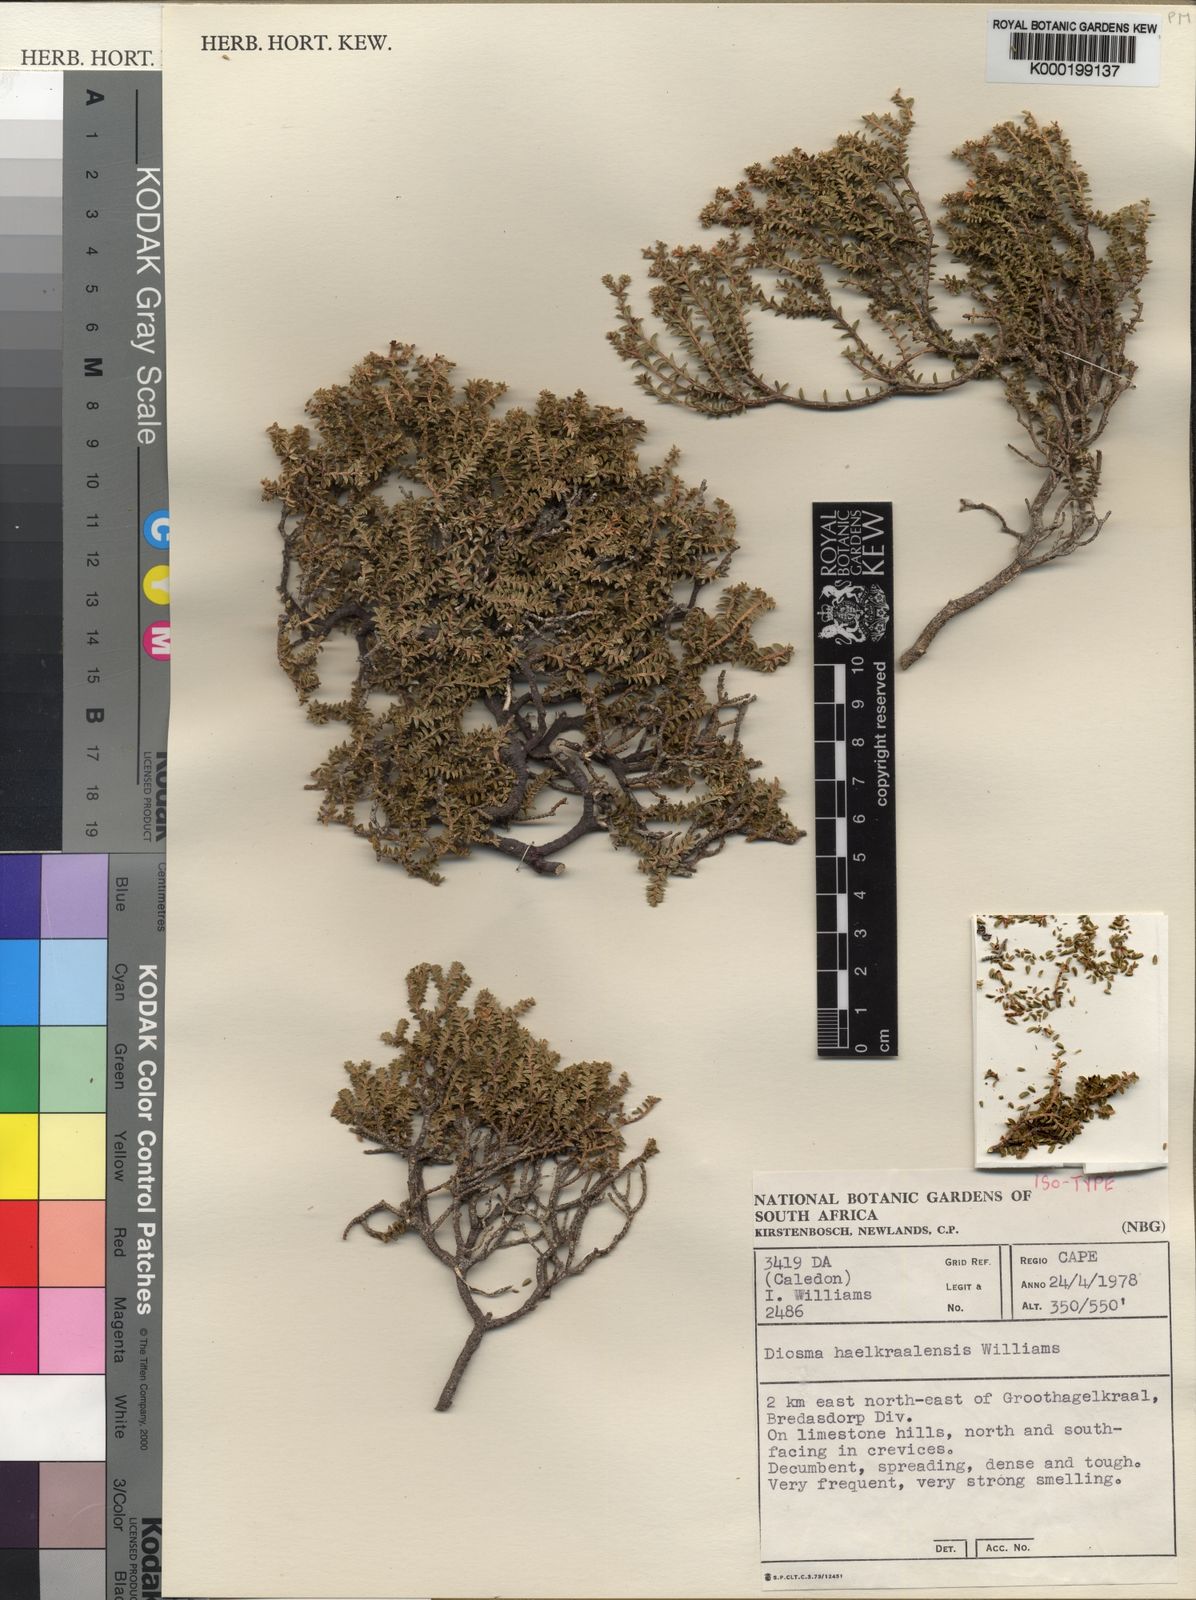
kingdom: Plantae
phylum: Tracheophyta
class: Magnoliopsida
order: Sapindales
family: Rutaceae
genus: Diosma
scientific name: Diosma haelkraalensis
